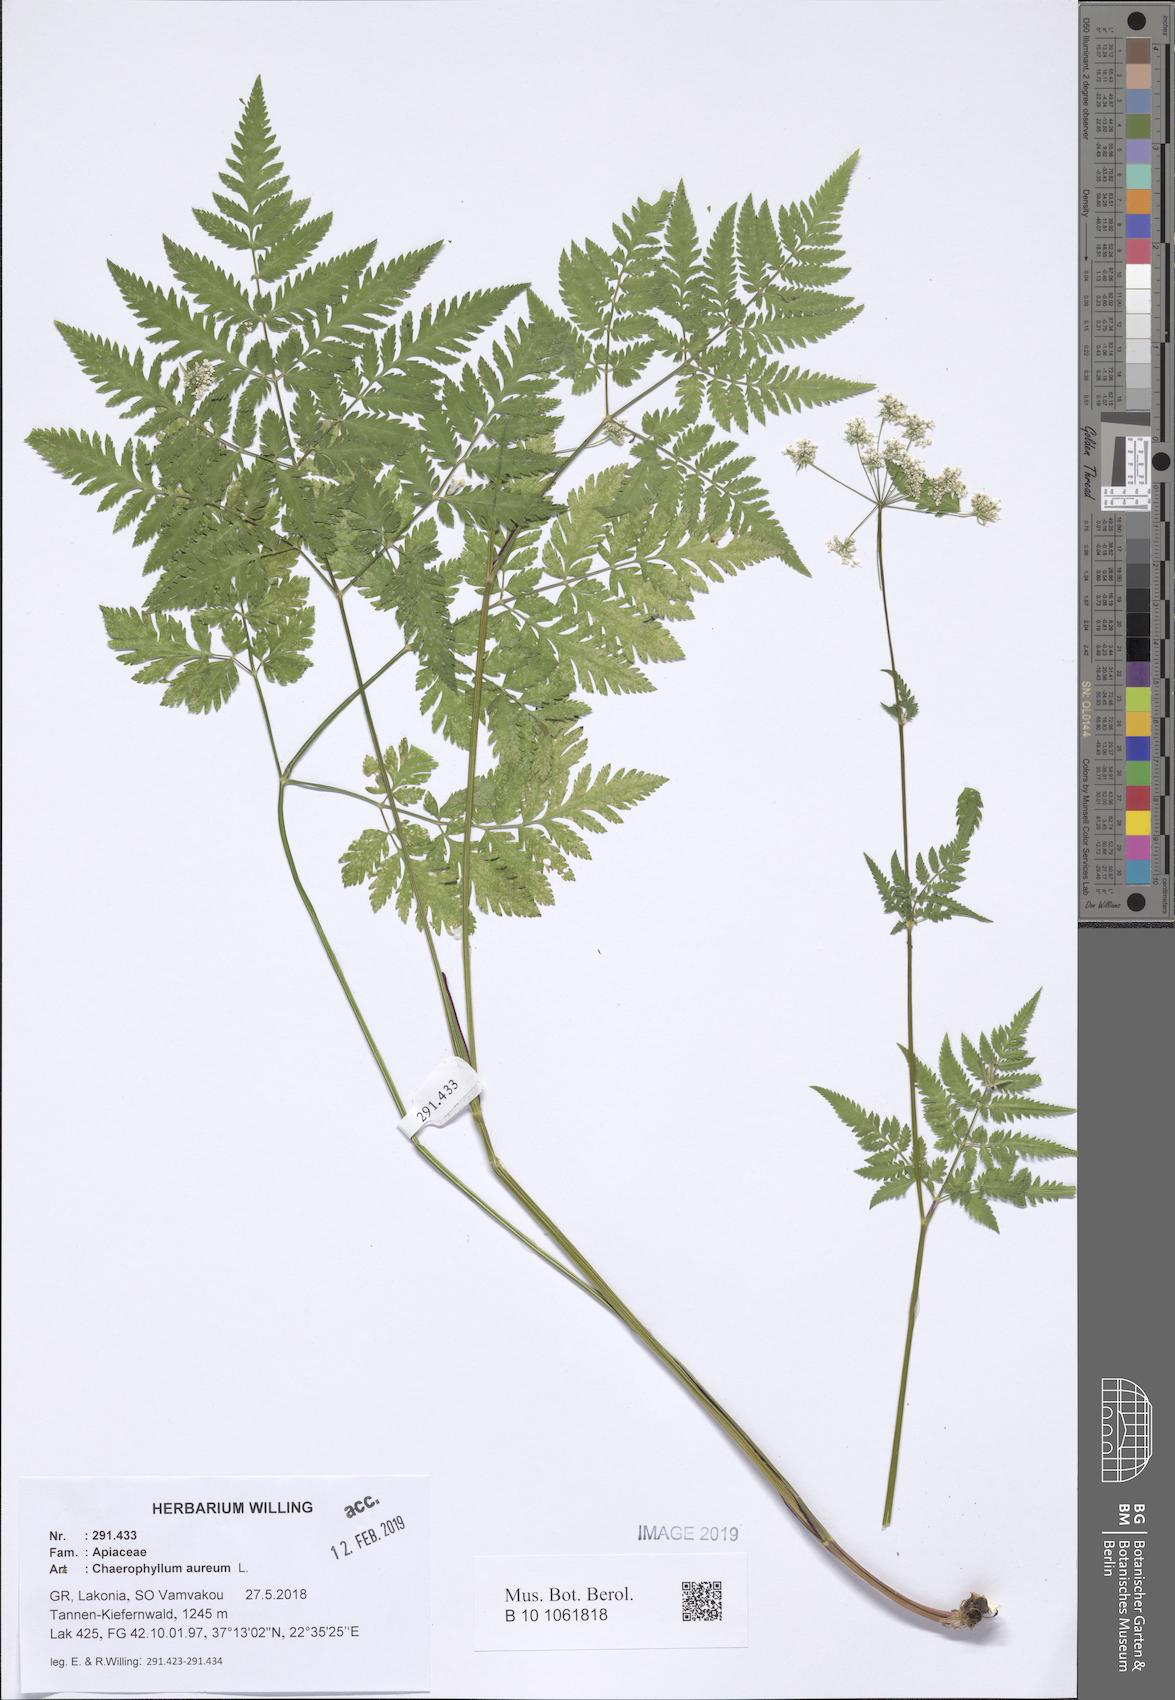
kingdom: Plantae
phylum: Tracheophyta
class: Magnoliopsida
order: Apiales
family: Apiaceae
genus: Chaerophyllum
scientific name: Chaerophyllum aureum
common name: Golden chervil
